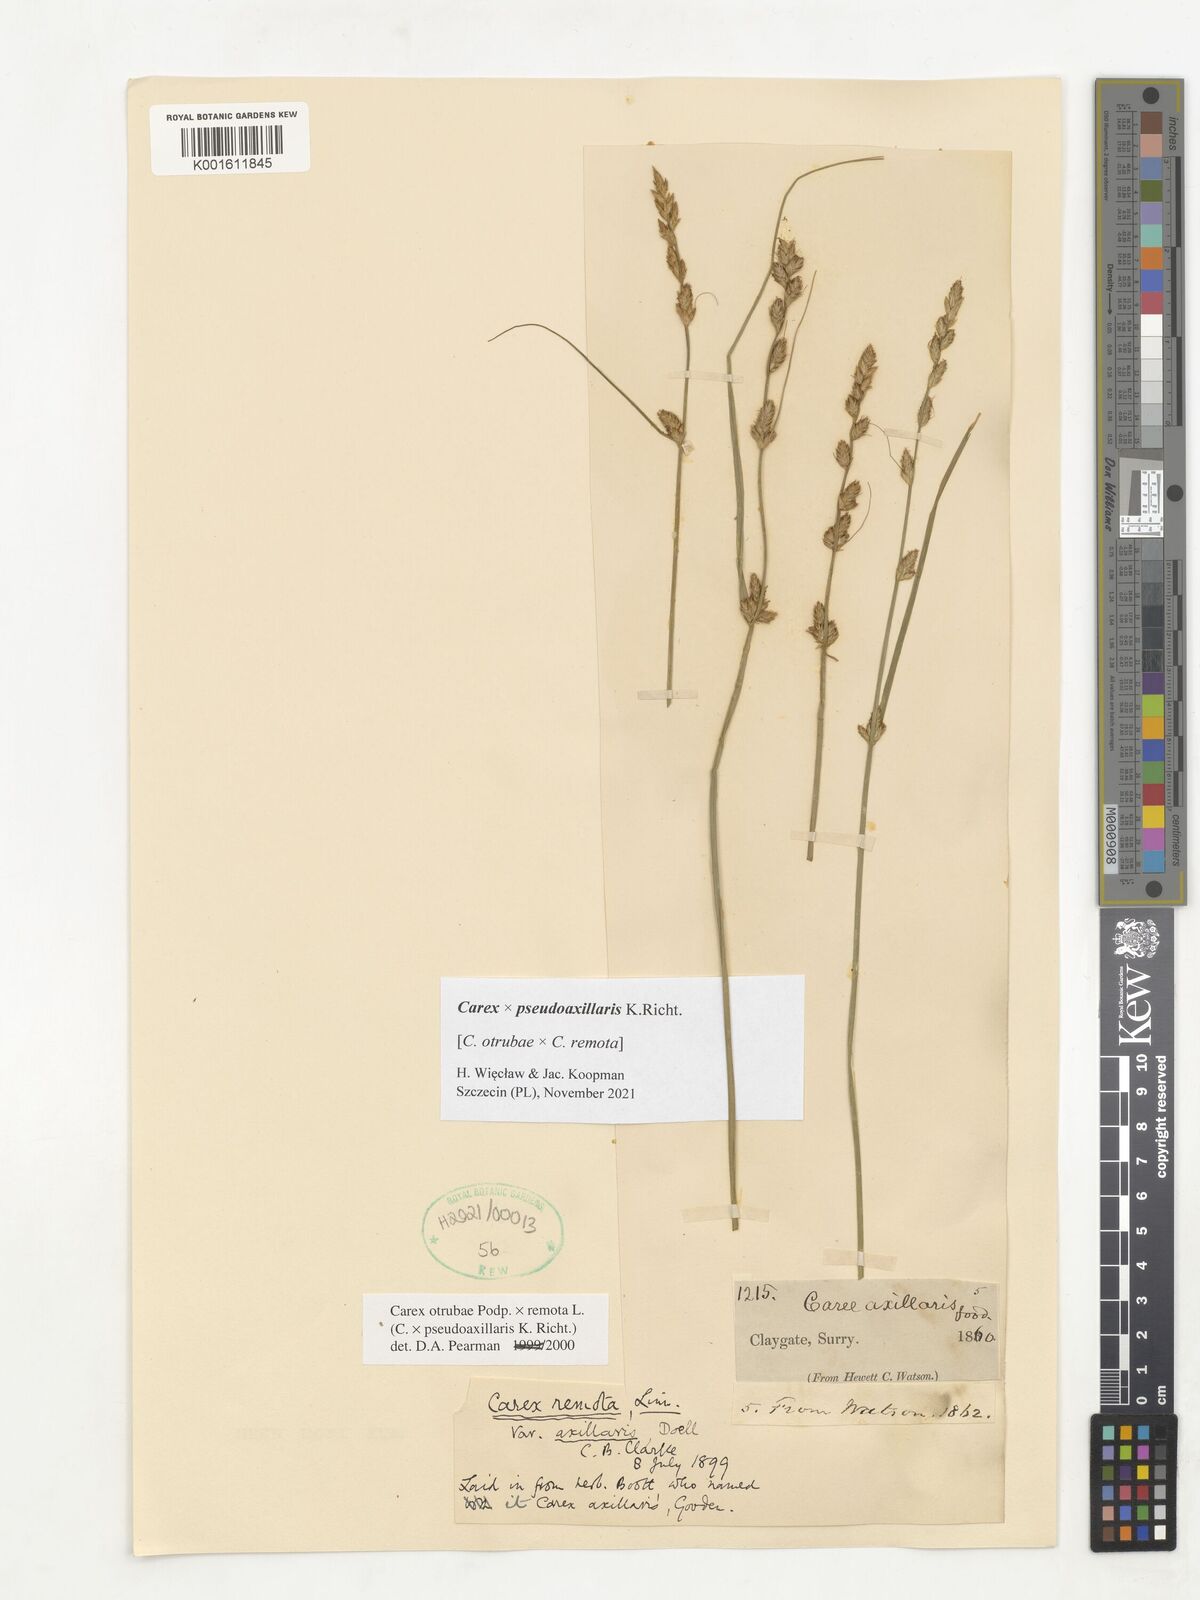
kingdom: Plantae
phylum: Tracheophyta
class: Liliopsida
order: Poales
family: Cyperaceae
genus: Carex
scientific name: Carex pseudoaxillaris
